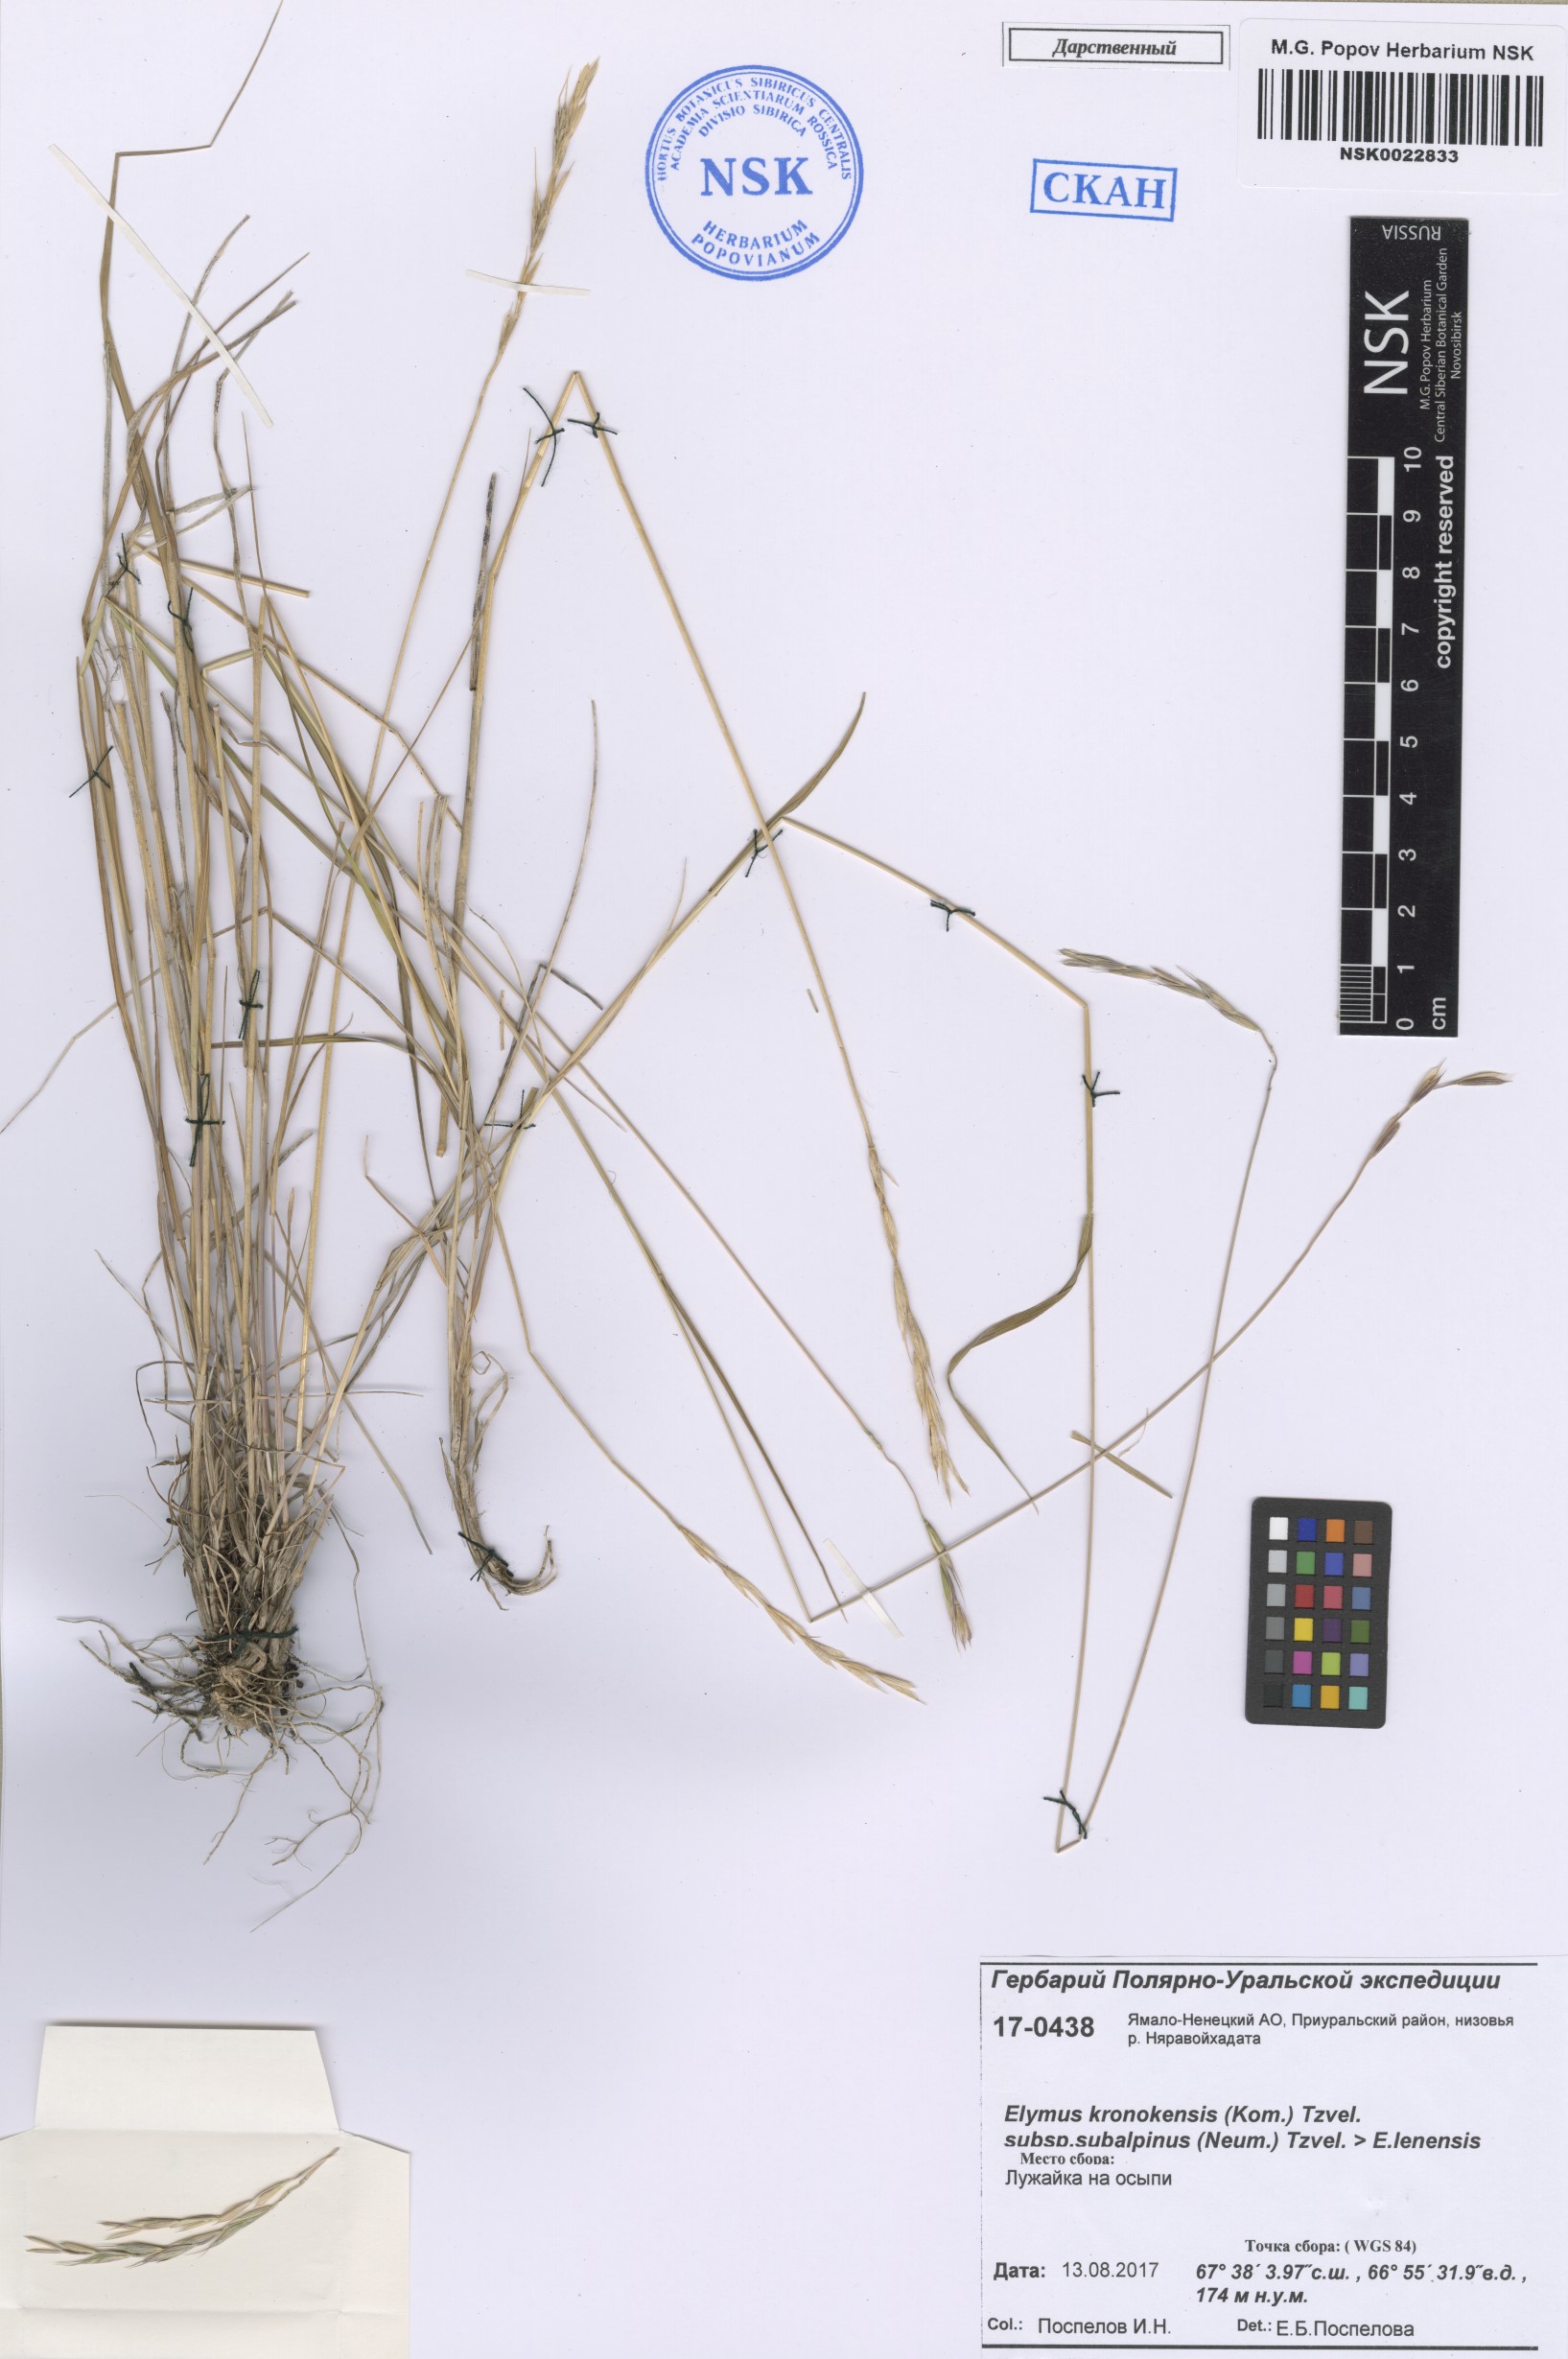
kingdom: Plantae
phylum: Tracheophyta
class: Liliopsida
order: Poales
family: Poaceae
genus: Elymus
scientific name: Elymus macrourus
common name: Northern wheatgrass
